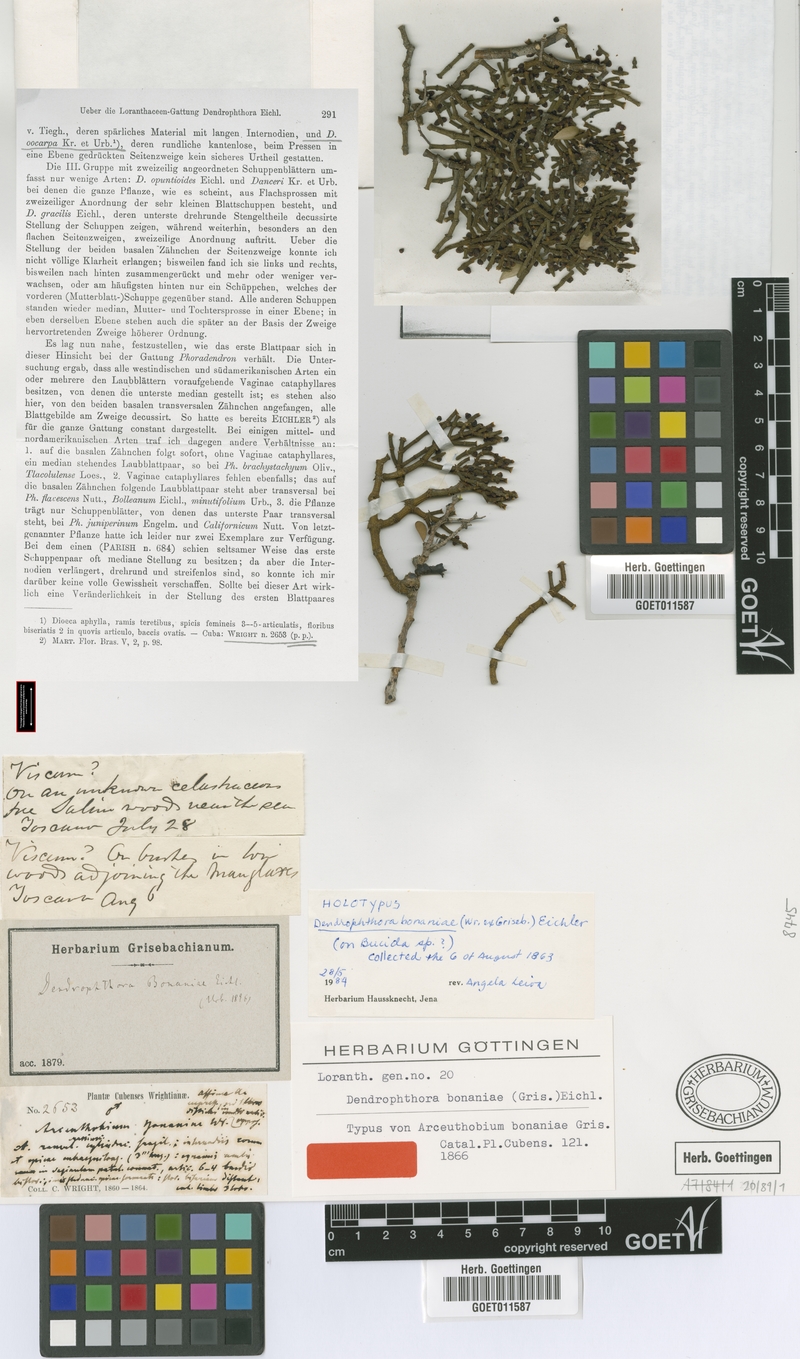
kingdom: Plantae
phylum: Tracheophyta
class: Magnoliopsida
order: Santalales
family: Viscaceae
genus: Dendrophthora
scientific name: Dendrophthora bonaniae
